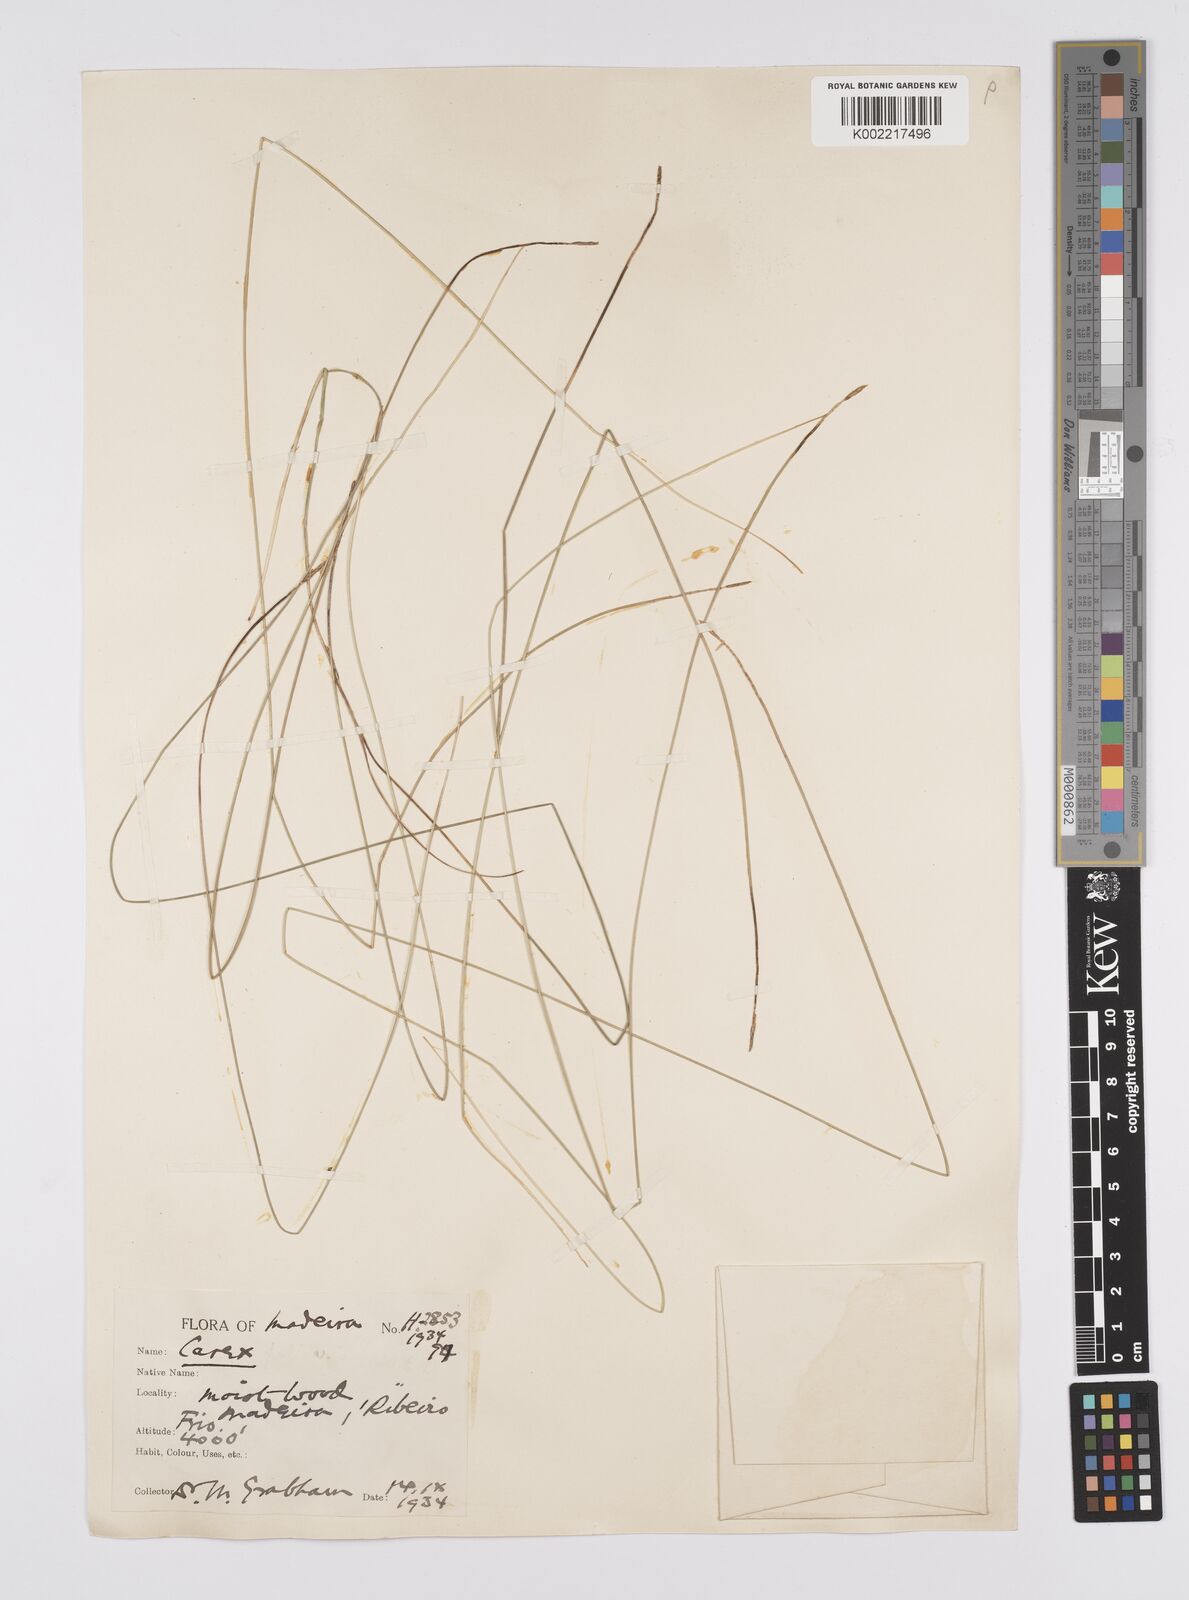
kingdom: Plantae
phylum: Tracheophyta
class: Liliopsida
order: Poales
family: Cyperaceae
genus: Carex
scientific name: Carex peregrina
